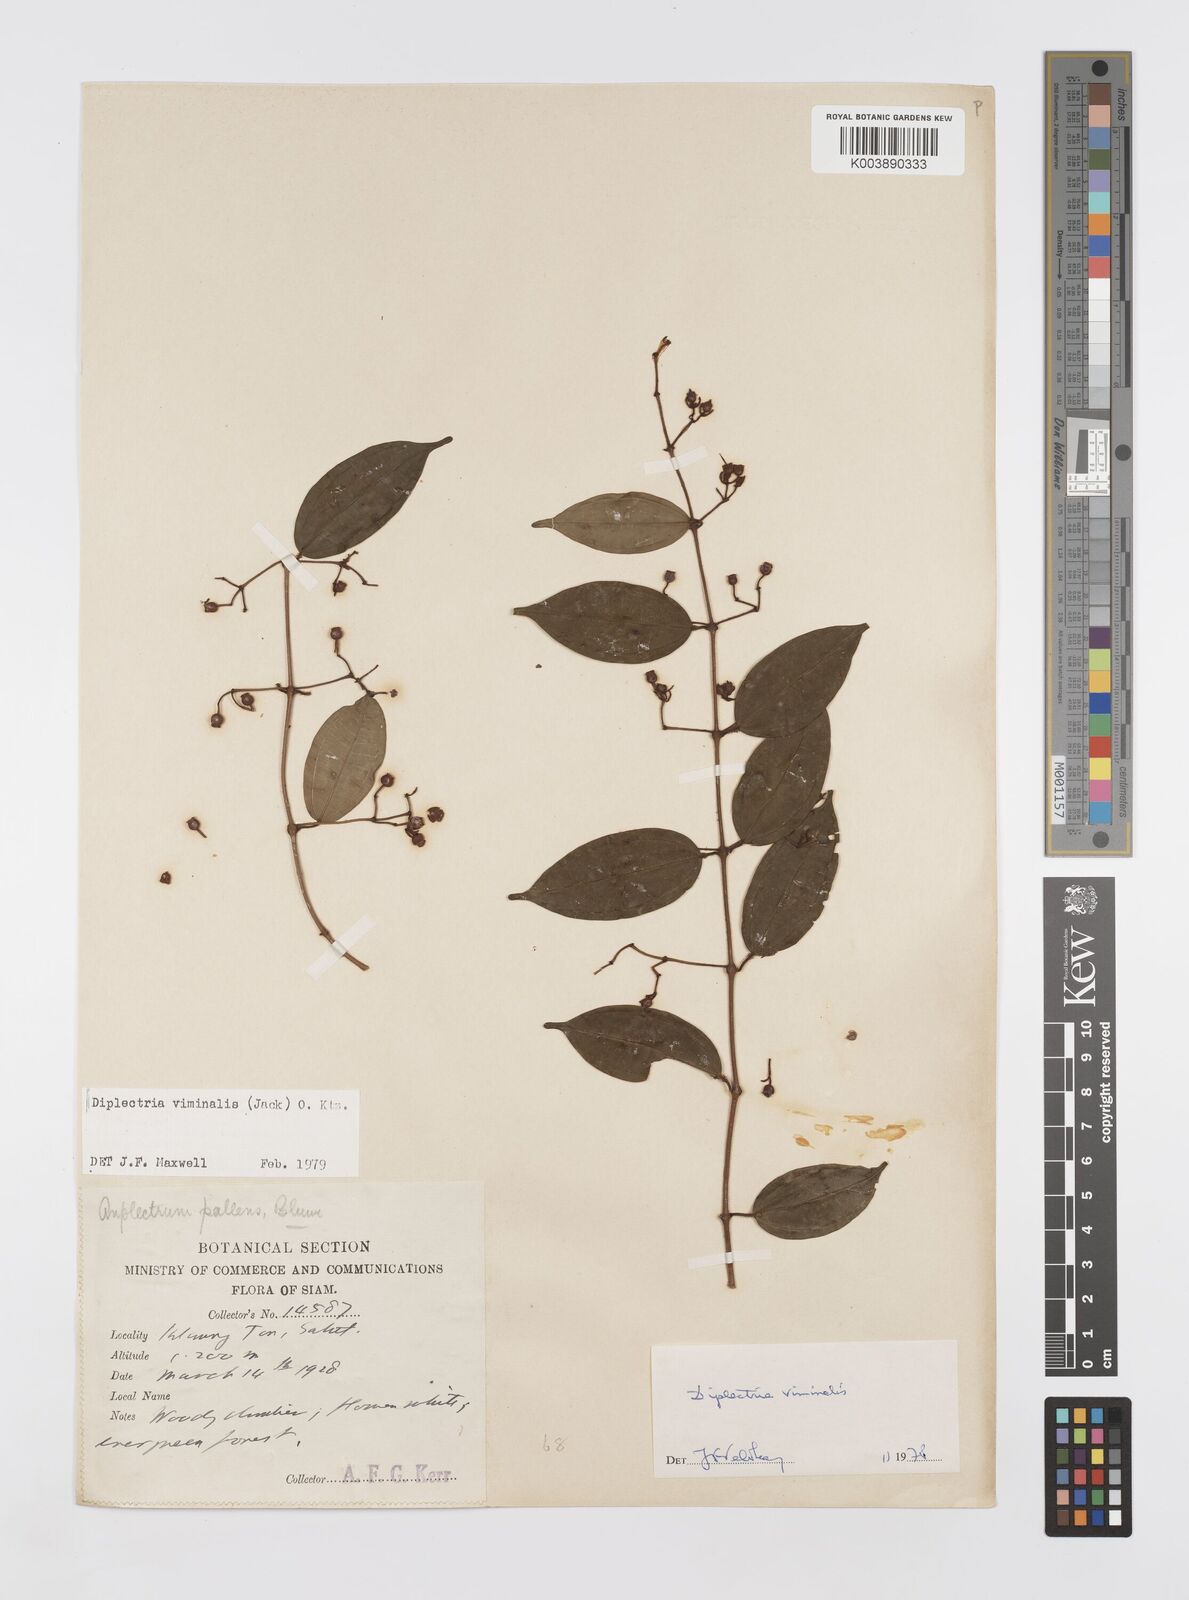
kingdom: Plantae
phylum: Tracheophyta
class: Magnoliopsida
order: Myrtales
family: Melastomataceae
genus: Diplectria
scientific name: Diplectria viminalis
